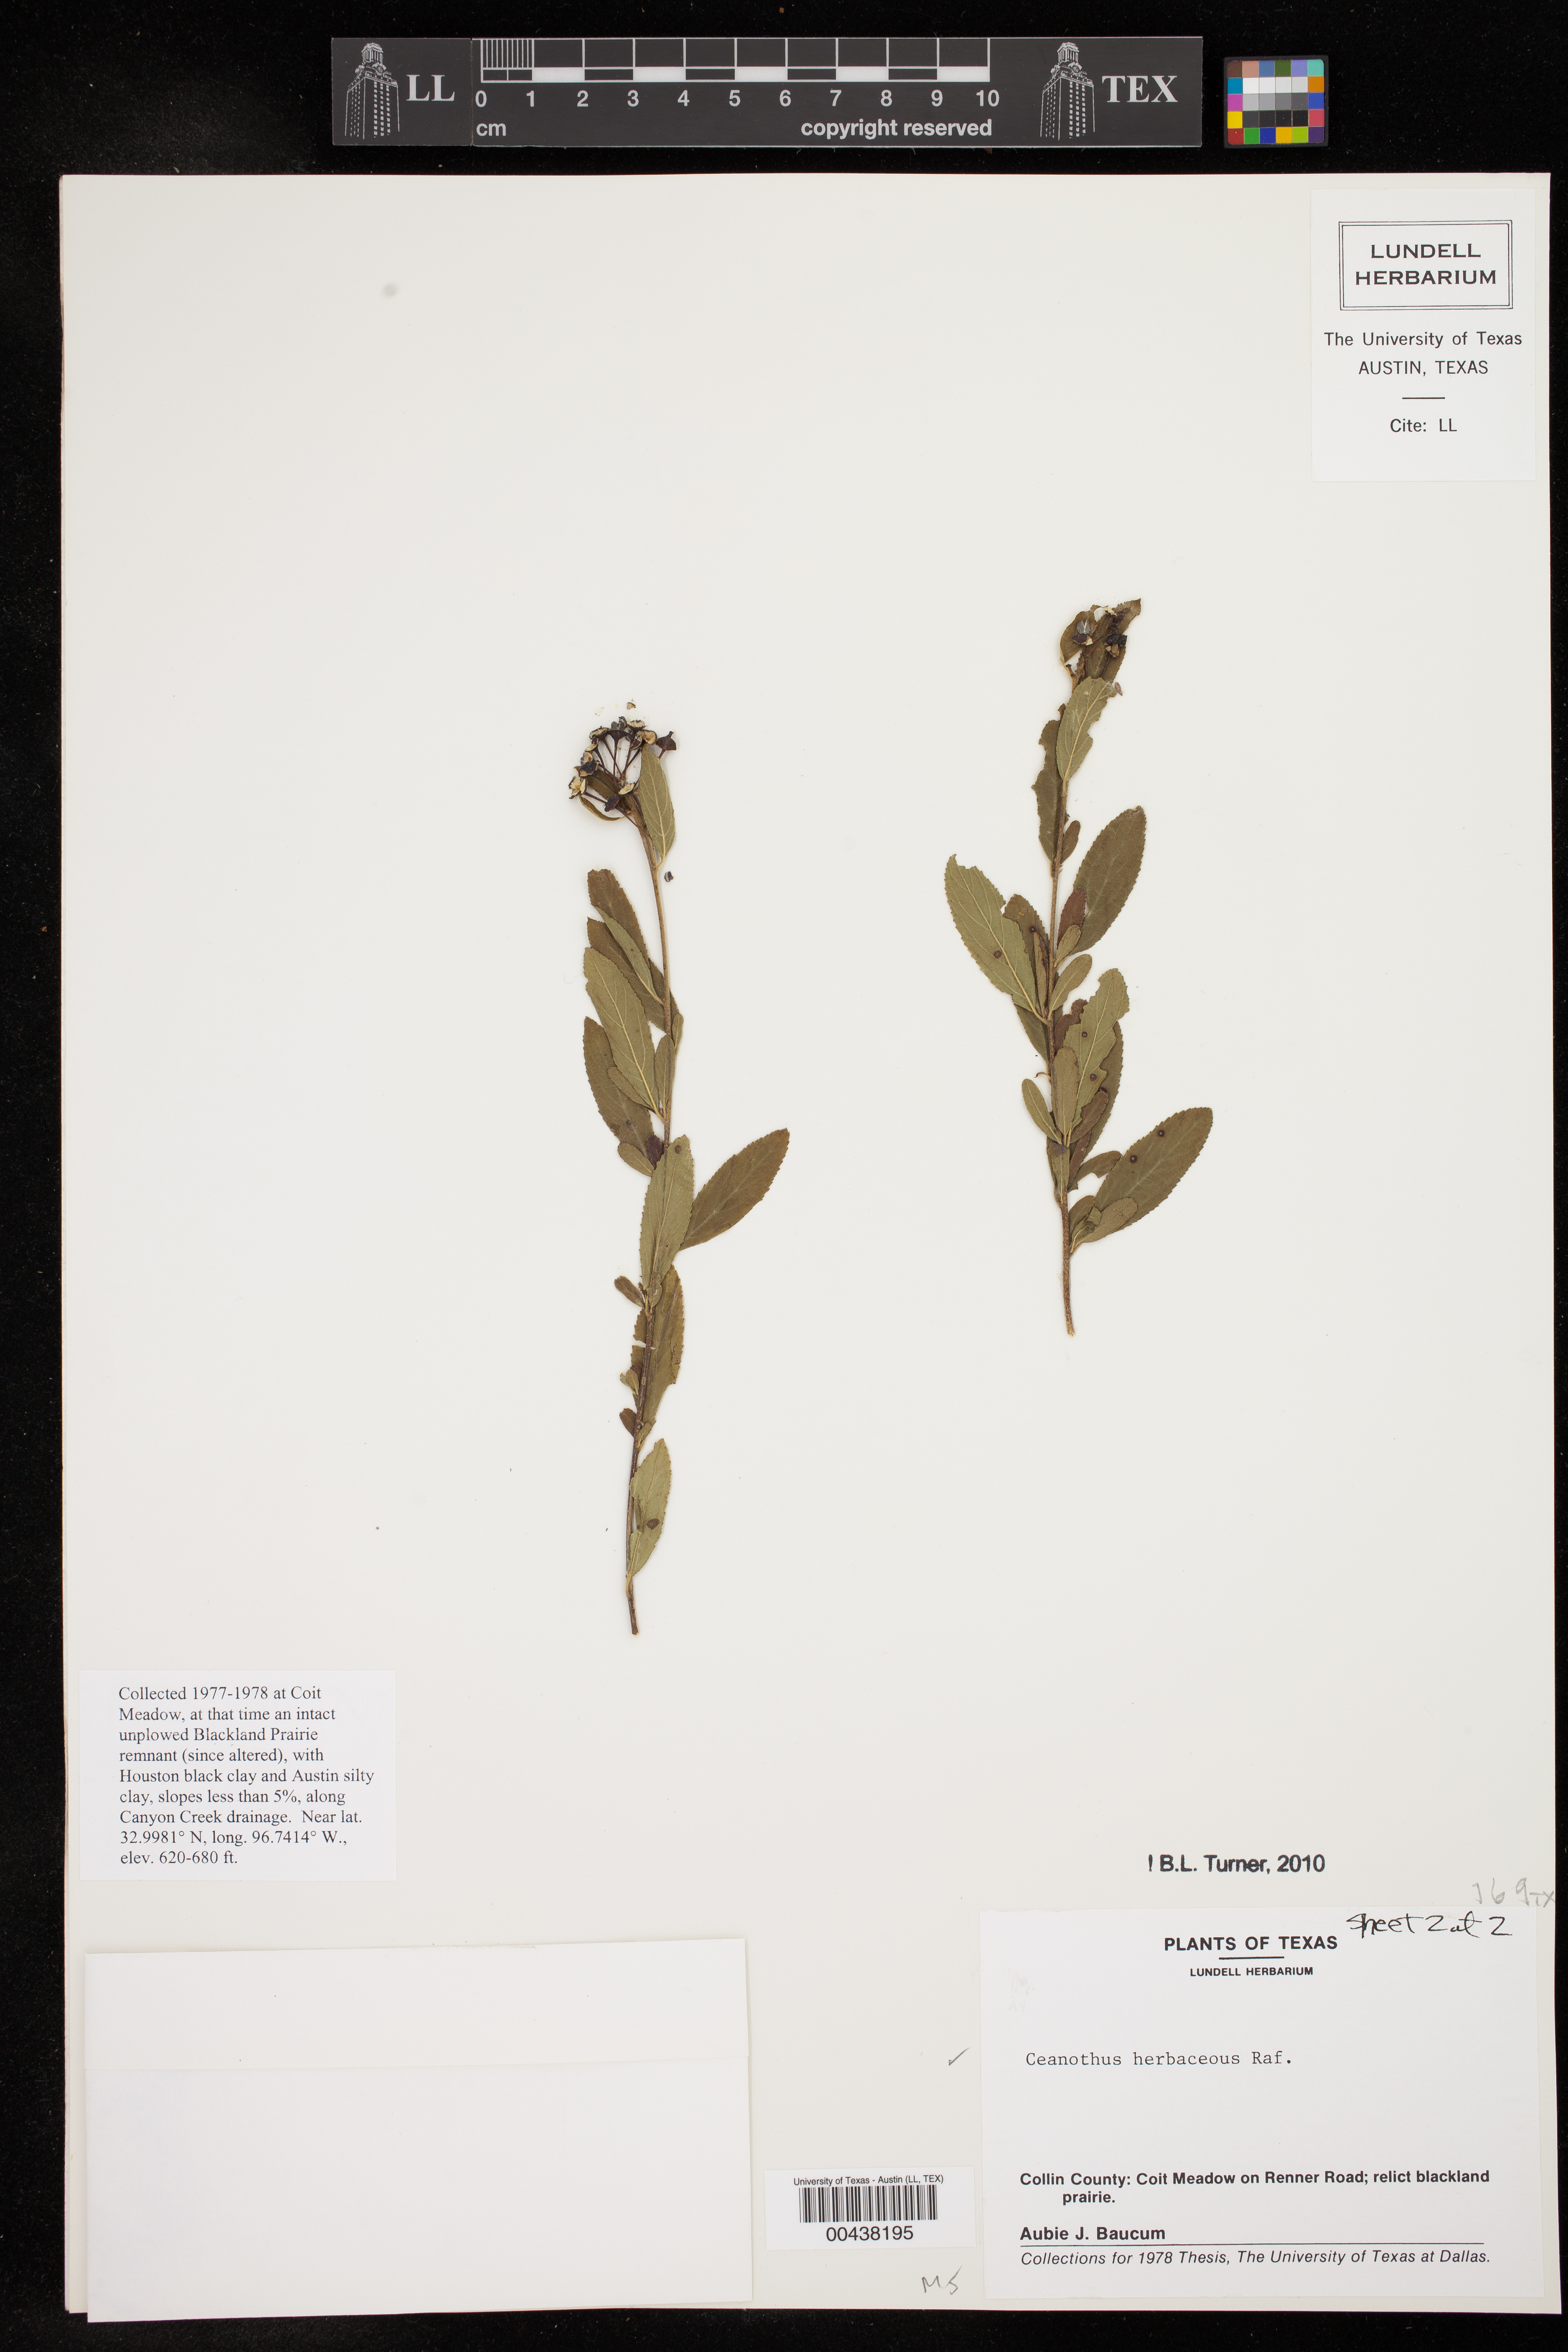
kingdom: Plantae
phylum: Tracheophyta
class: Magnoliopsida
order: Rosales
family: Rhamnaceae
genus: Ceanothus
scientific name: Ceanothus herbaceus
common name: Inland ceanothus
